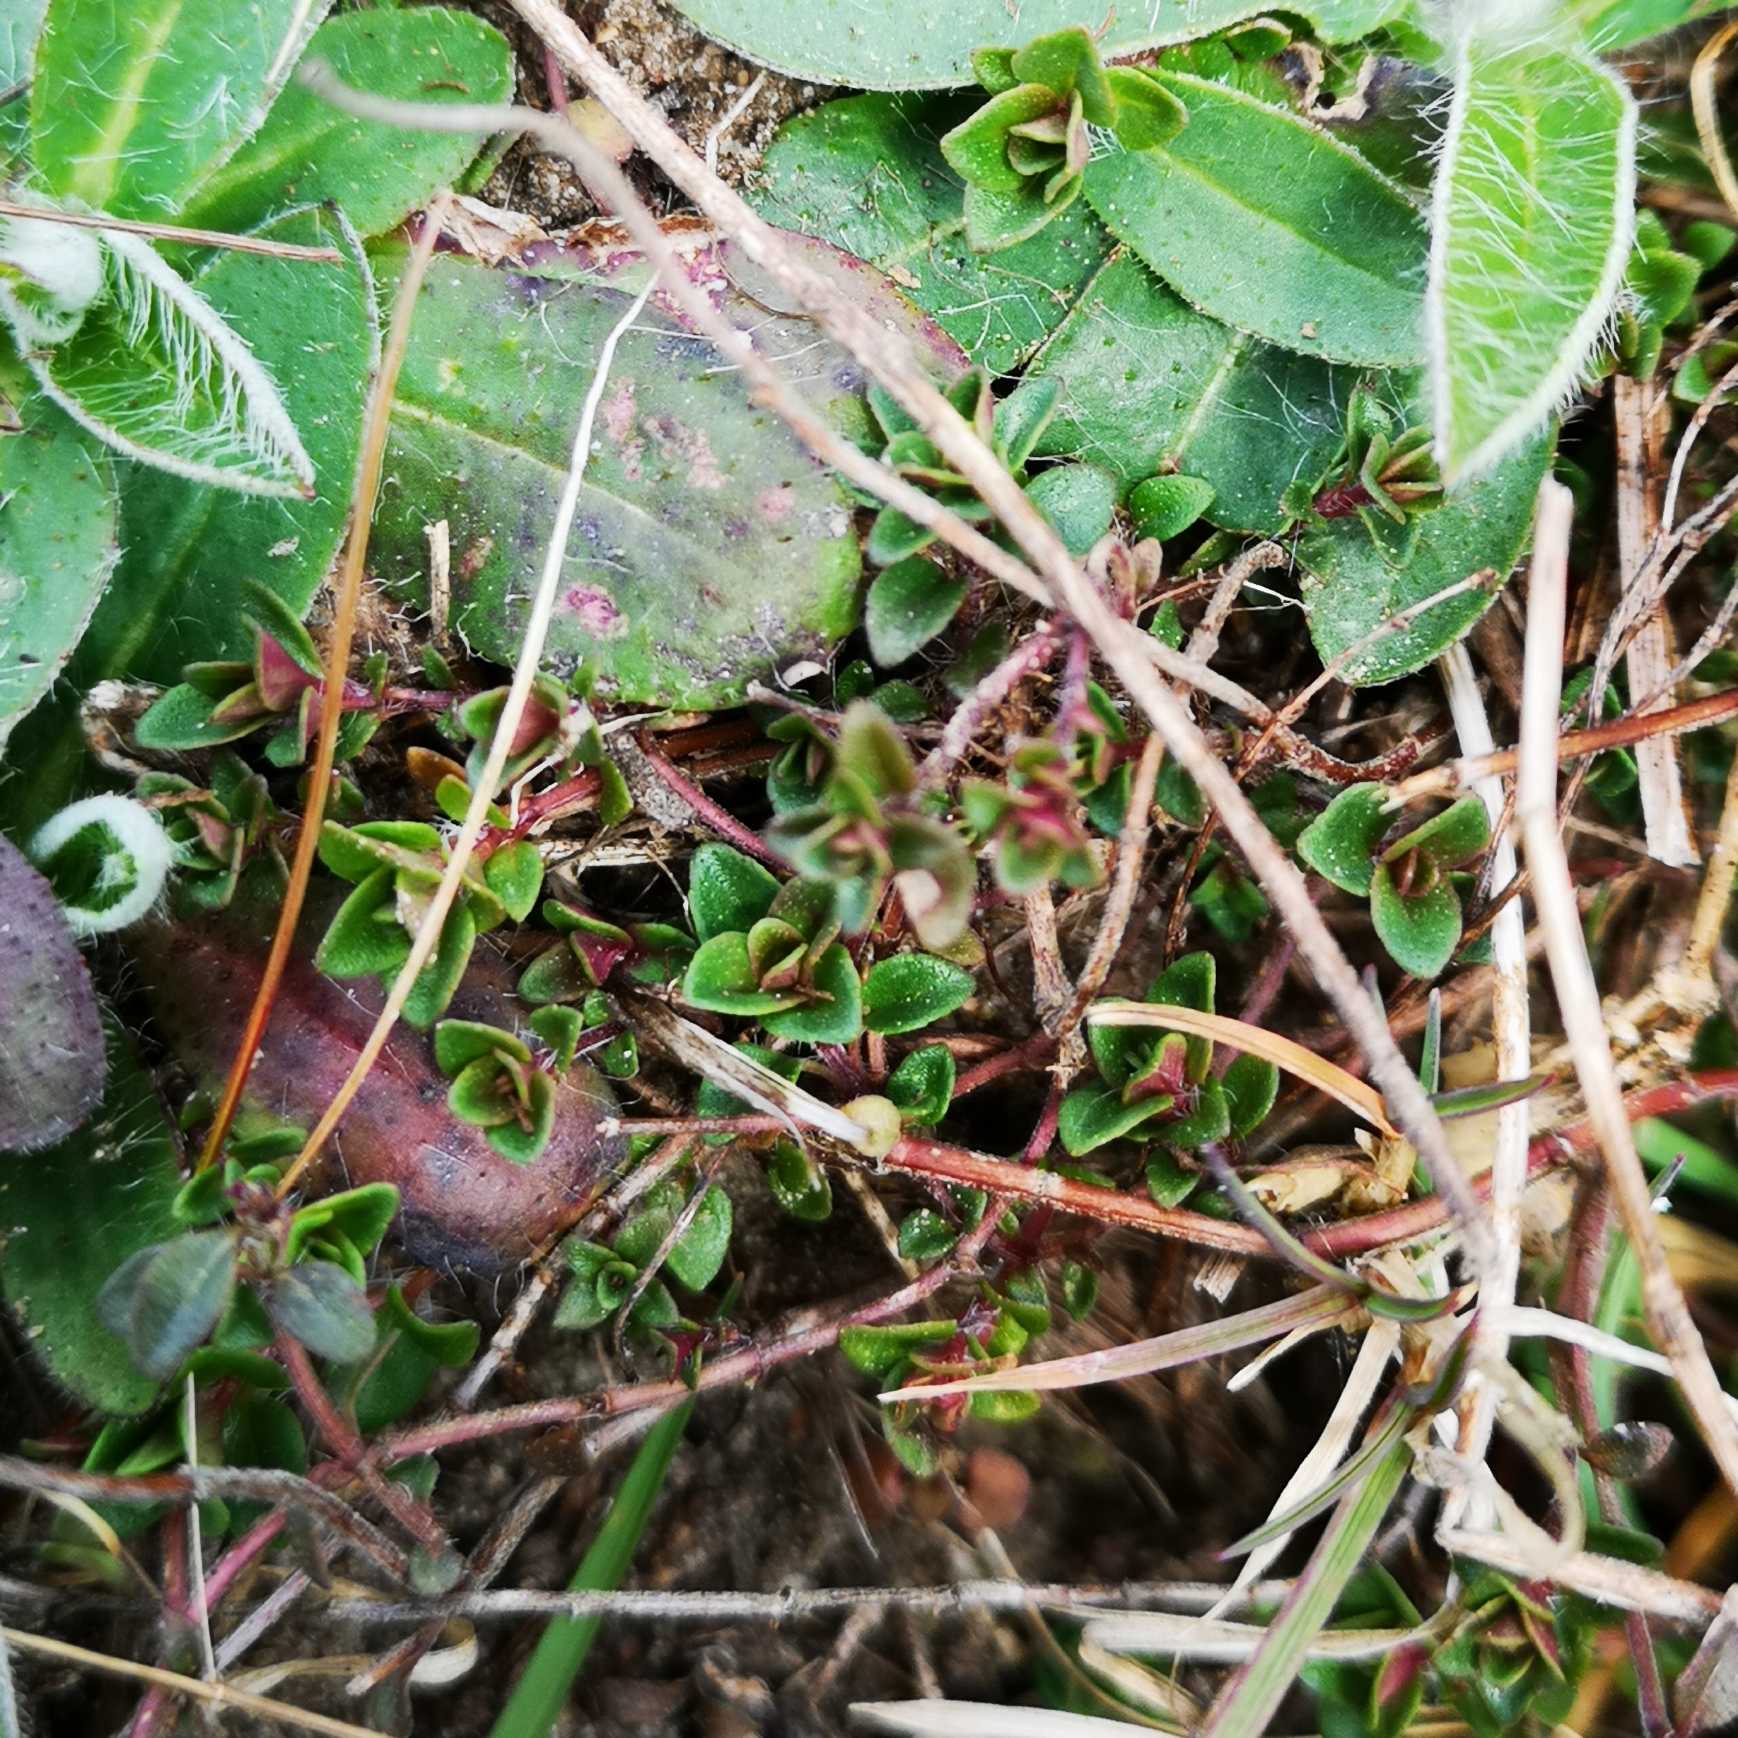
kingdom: Plantae
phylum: Tracheophyta
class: Magnoliopsida
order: Lamiales
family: Lamiaceae
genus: Thymus
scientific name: Thymus pulegioides
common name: Bredbladet timian
